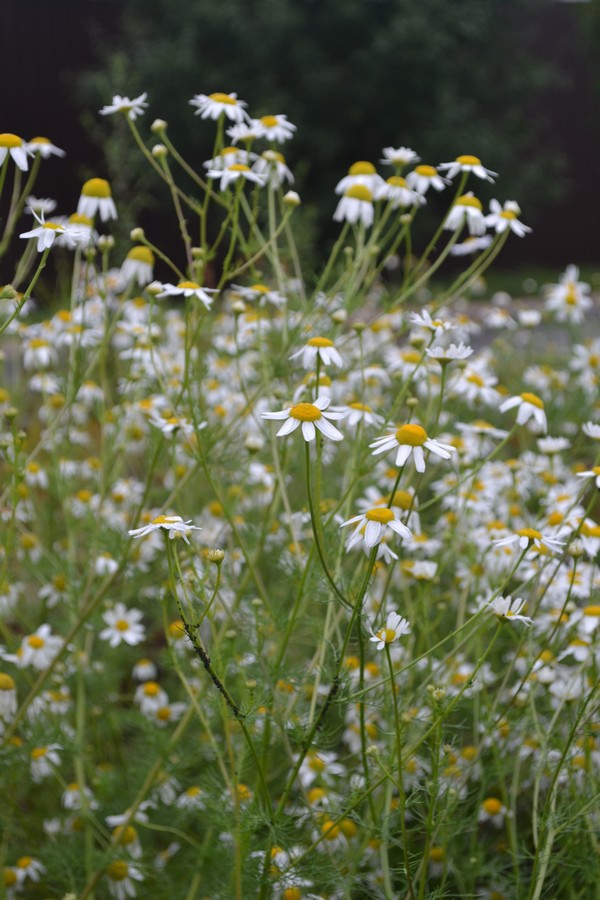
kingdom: Plantae
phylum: Tracheophyta
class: Magnoliopsida
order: Asterales
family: Asteraceae
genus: Tripleurospermum
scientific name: Tripleurospermum inodorum
